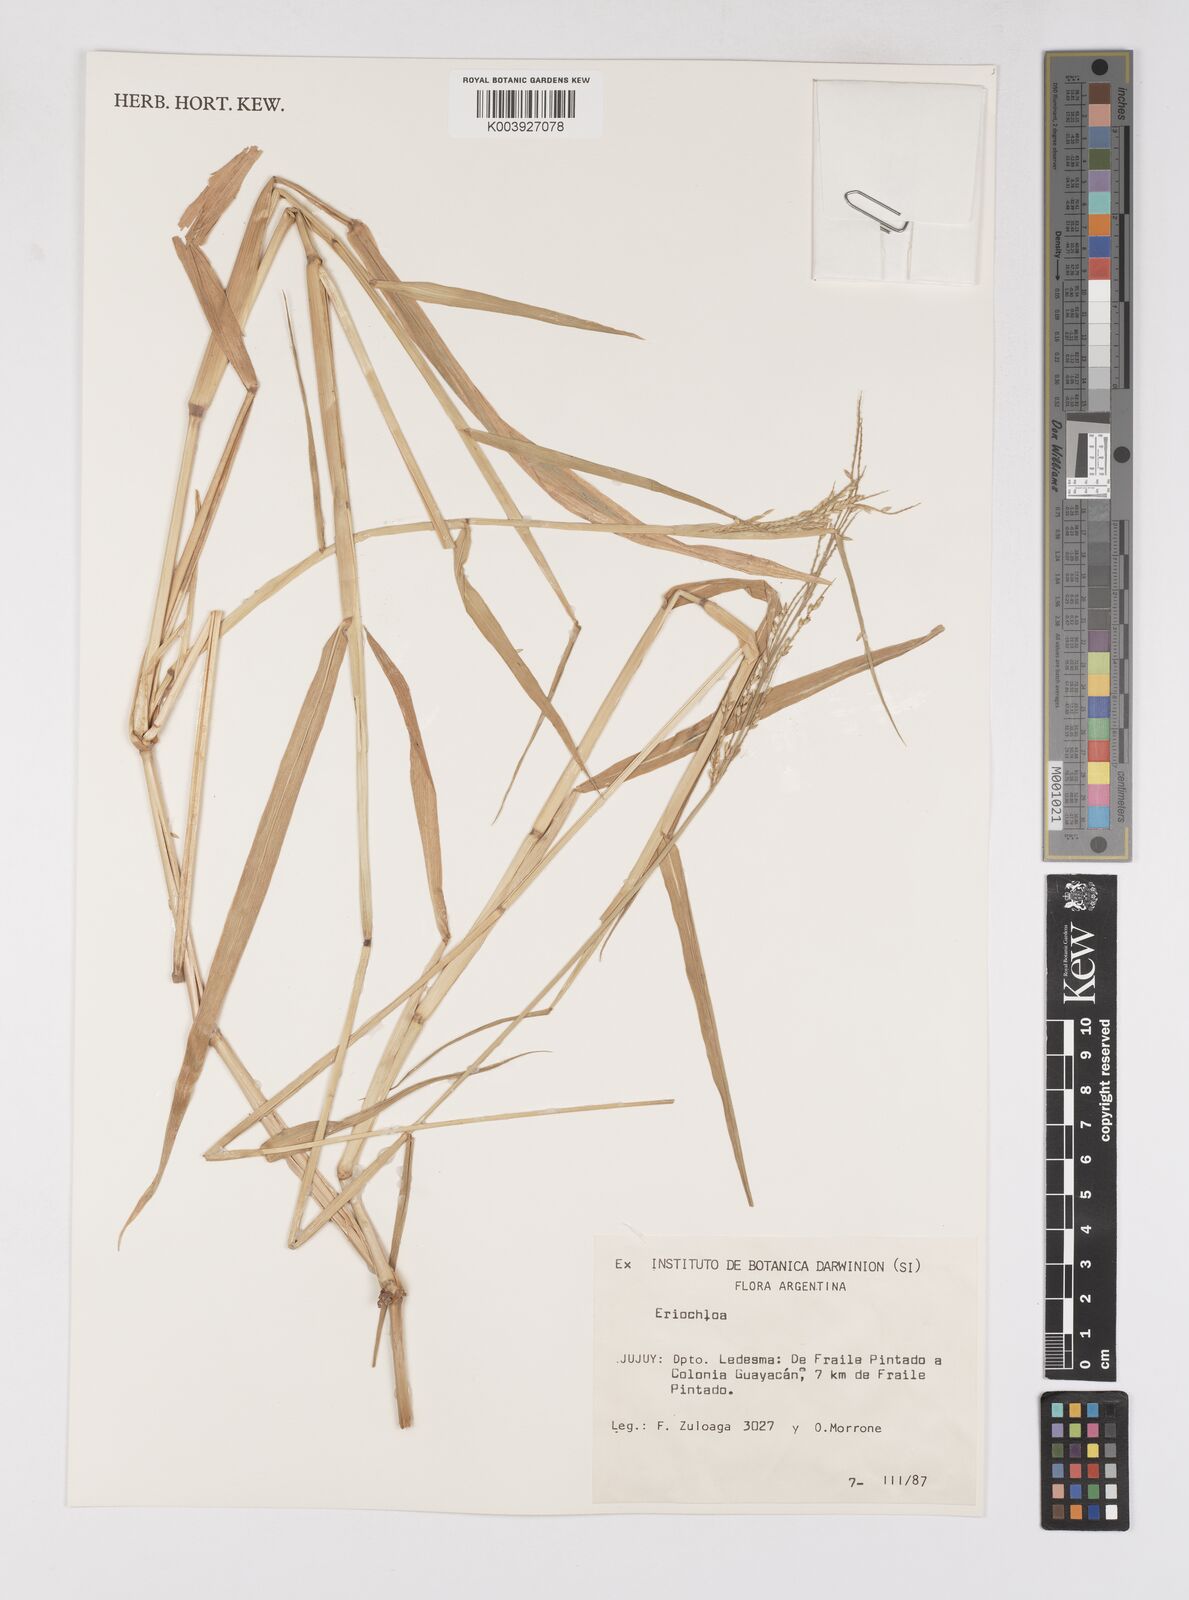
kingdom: Plantae
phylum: Tracheophyta
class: Liliopsida
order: Poales
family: Poaceae
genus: Eriochloa
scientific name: Eriochloa procera
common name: Spring grass
